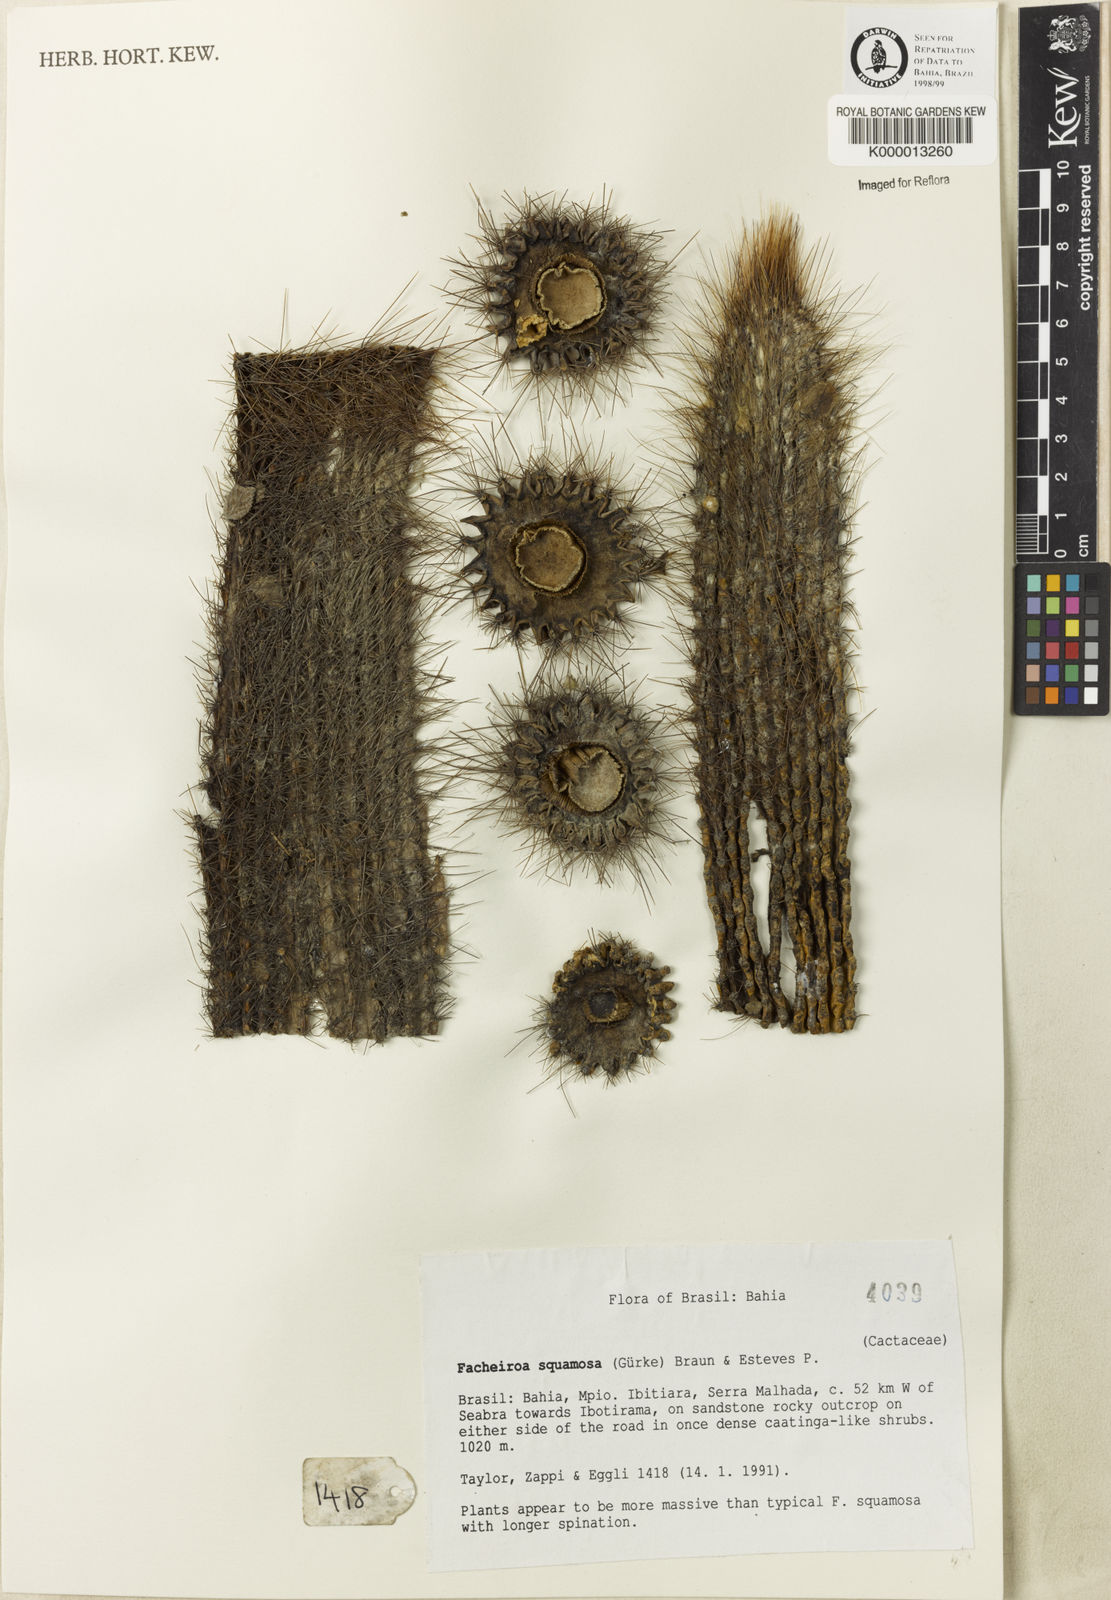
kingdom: Plantae
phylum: Tracheophyta
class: Magnoliopsida
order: Caryophyllales
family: Cactaceae
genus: Facheiroa
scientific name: Facheiroa squamosa
